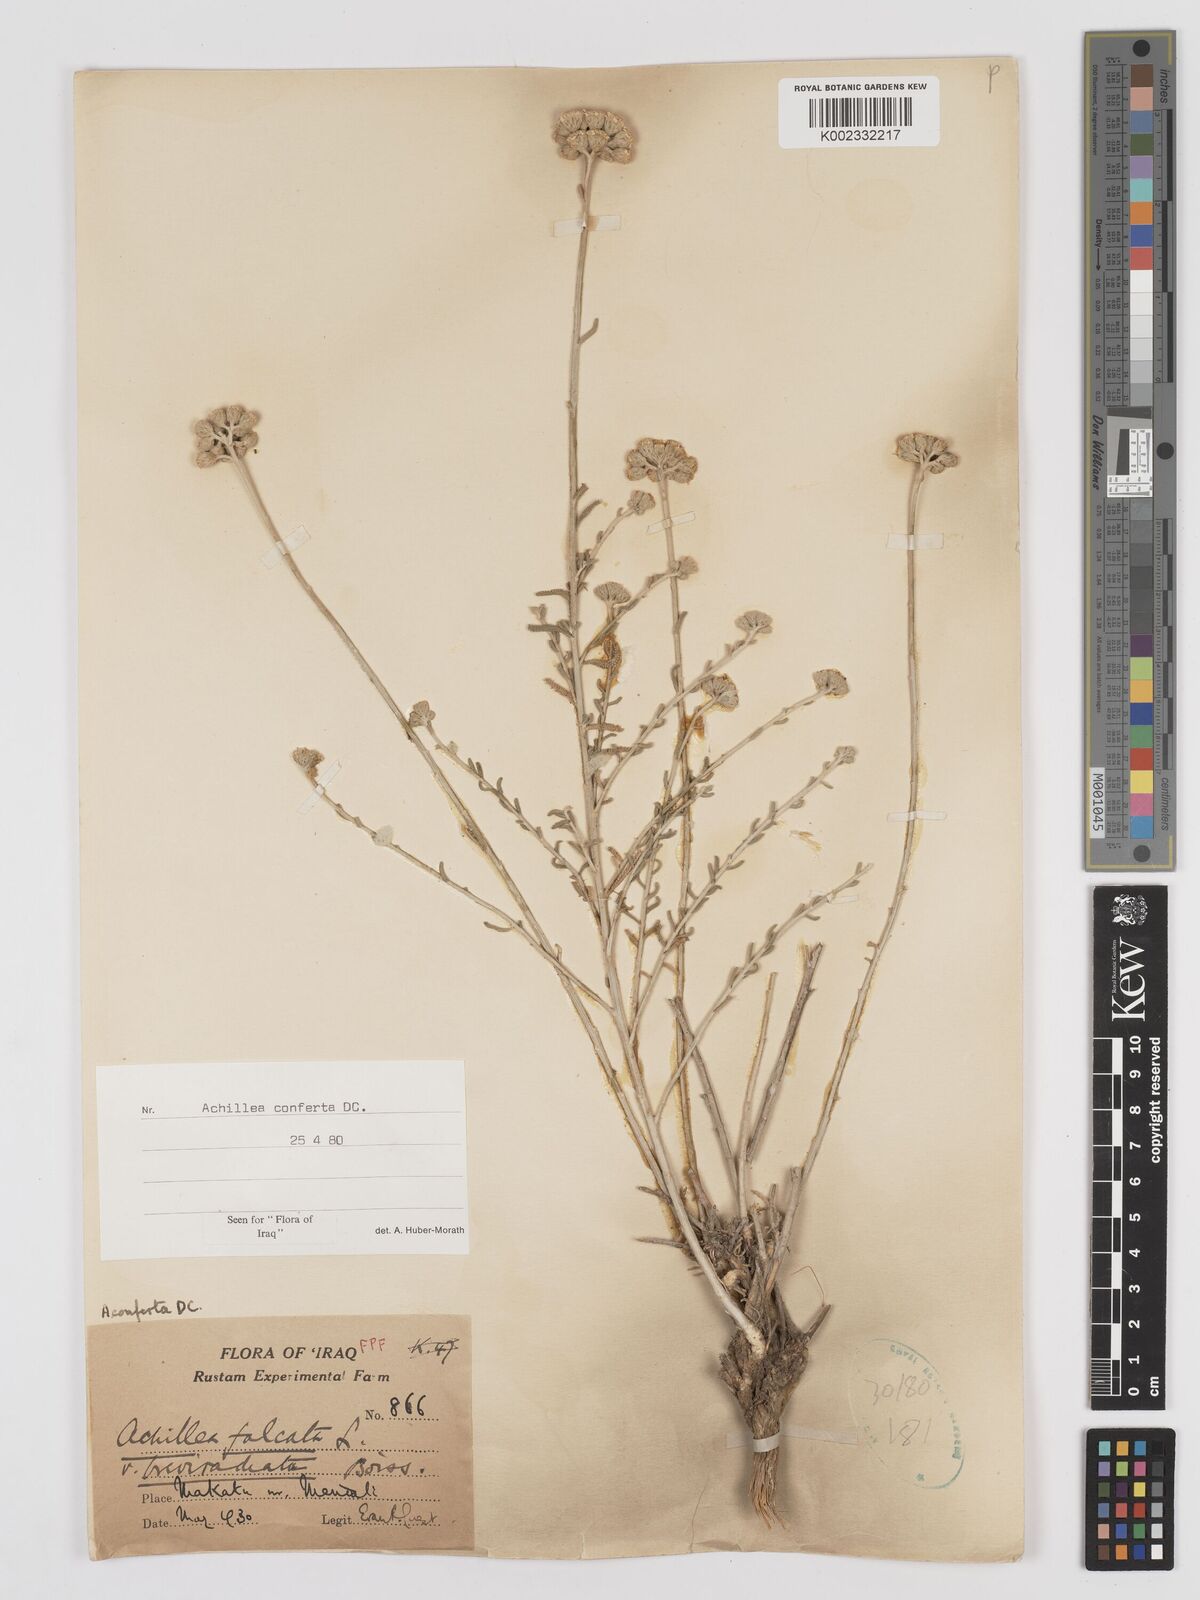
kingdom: Plantae
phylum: Tracheophyta
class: Magnoliopsida
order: Asterales
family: Asteraceae
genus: Achillea
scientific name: Achillea conferta
